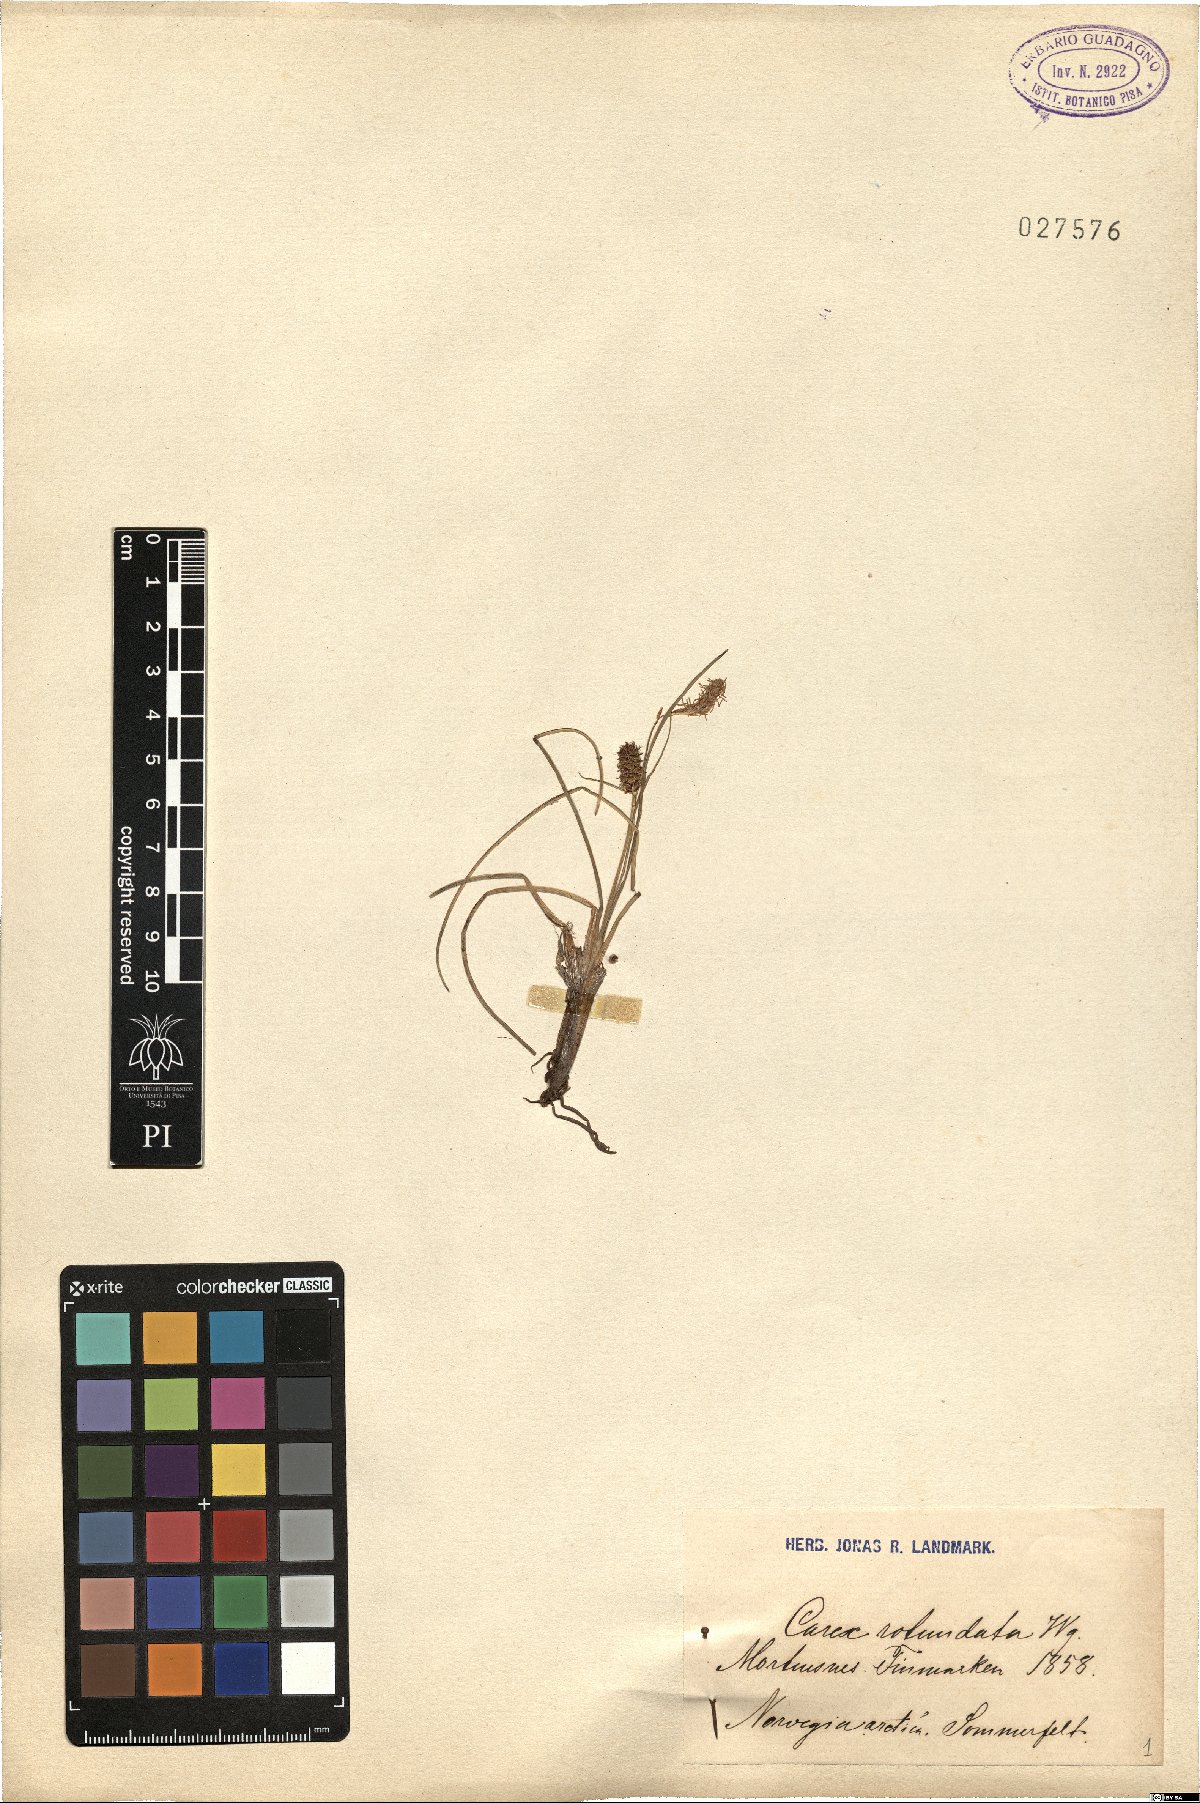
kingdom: Plantae
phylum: Tracheophyta
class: Liliopsida
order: Poales
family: Cyperaceae
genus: Carex
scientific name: Carex rotundata
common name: Round-fruited sedge
